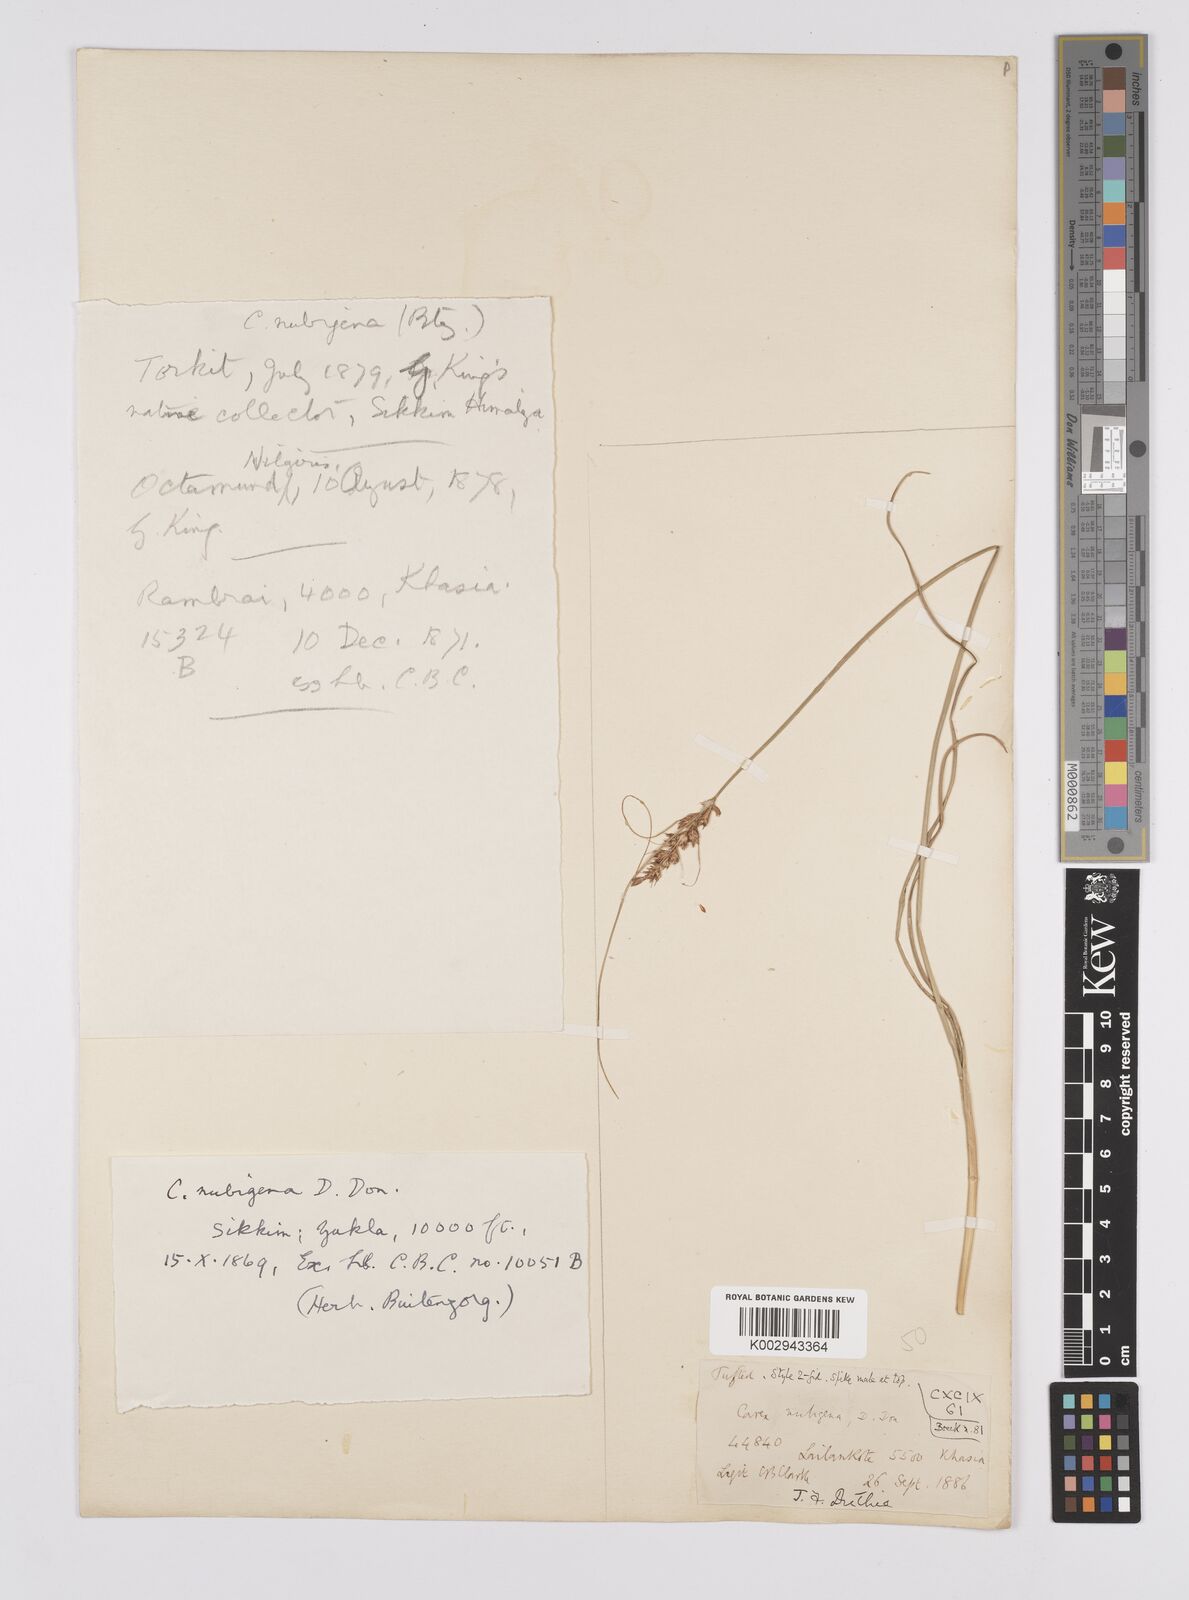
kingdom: Plantae
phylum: Tracheophyta
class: Liliopsida
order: Poales
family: Cyperaceae
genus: Carex
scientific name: Carex nubigena
